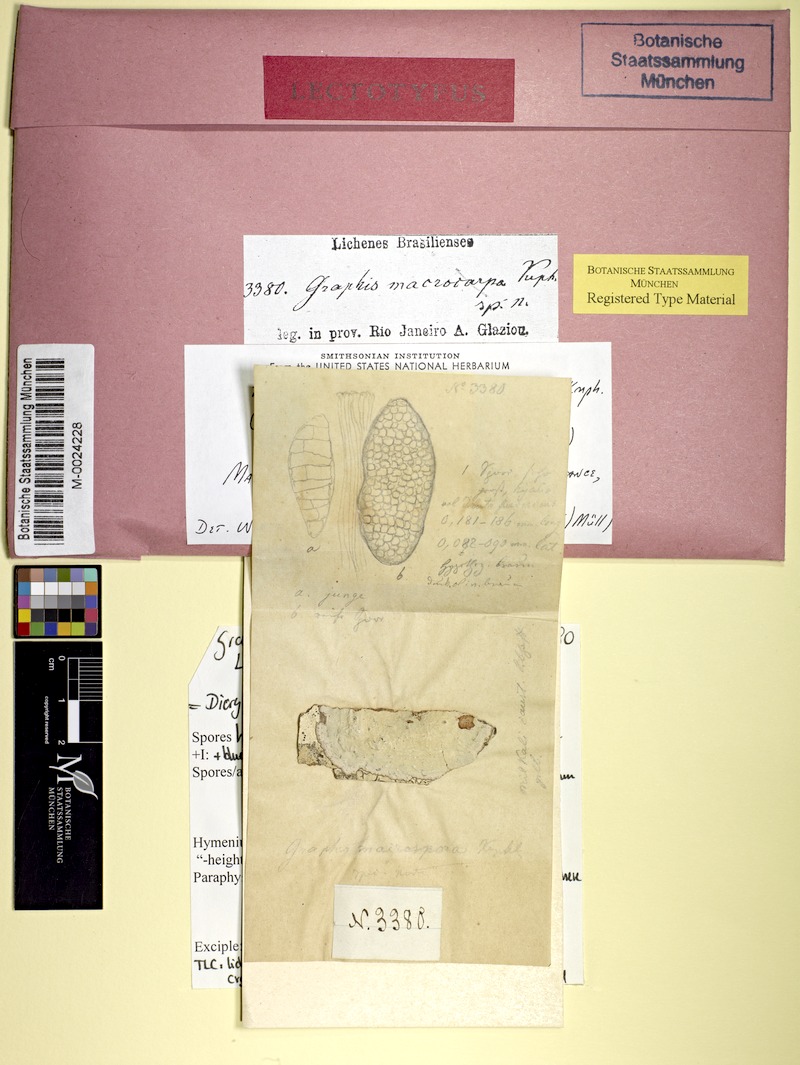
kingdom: Fungi
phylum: Ascomycota
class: Lecanoromycetes
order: Ostropales
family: Graphidaceae
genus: Diorygma
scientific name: Diorygma epiglaucum
